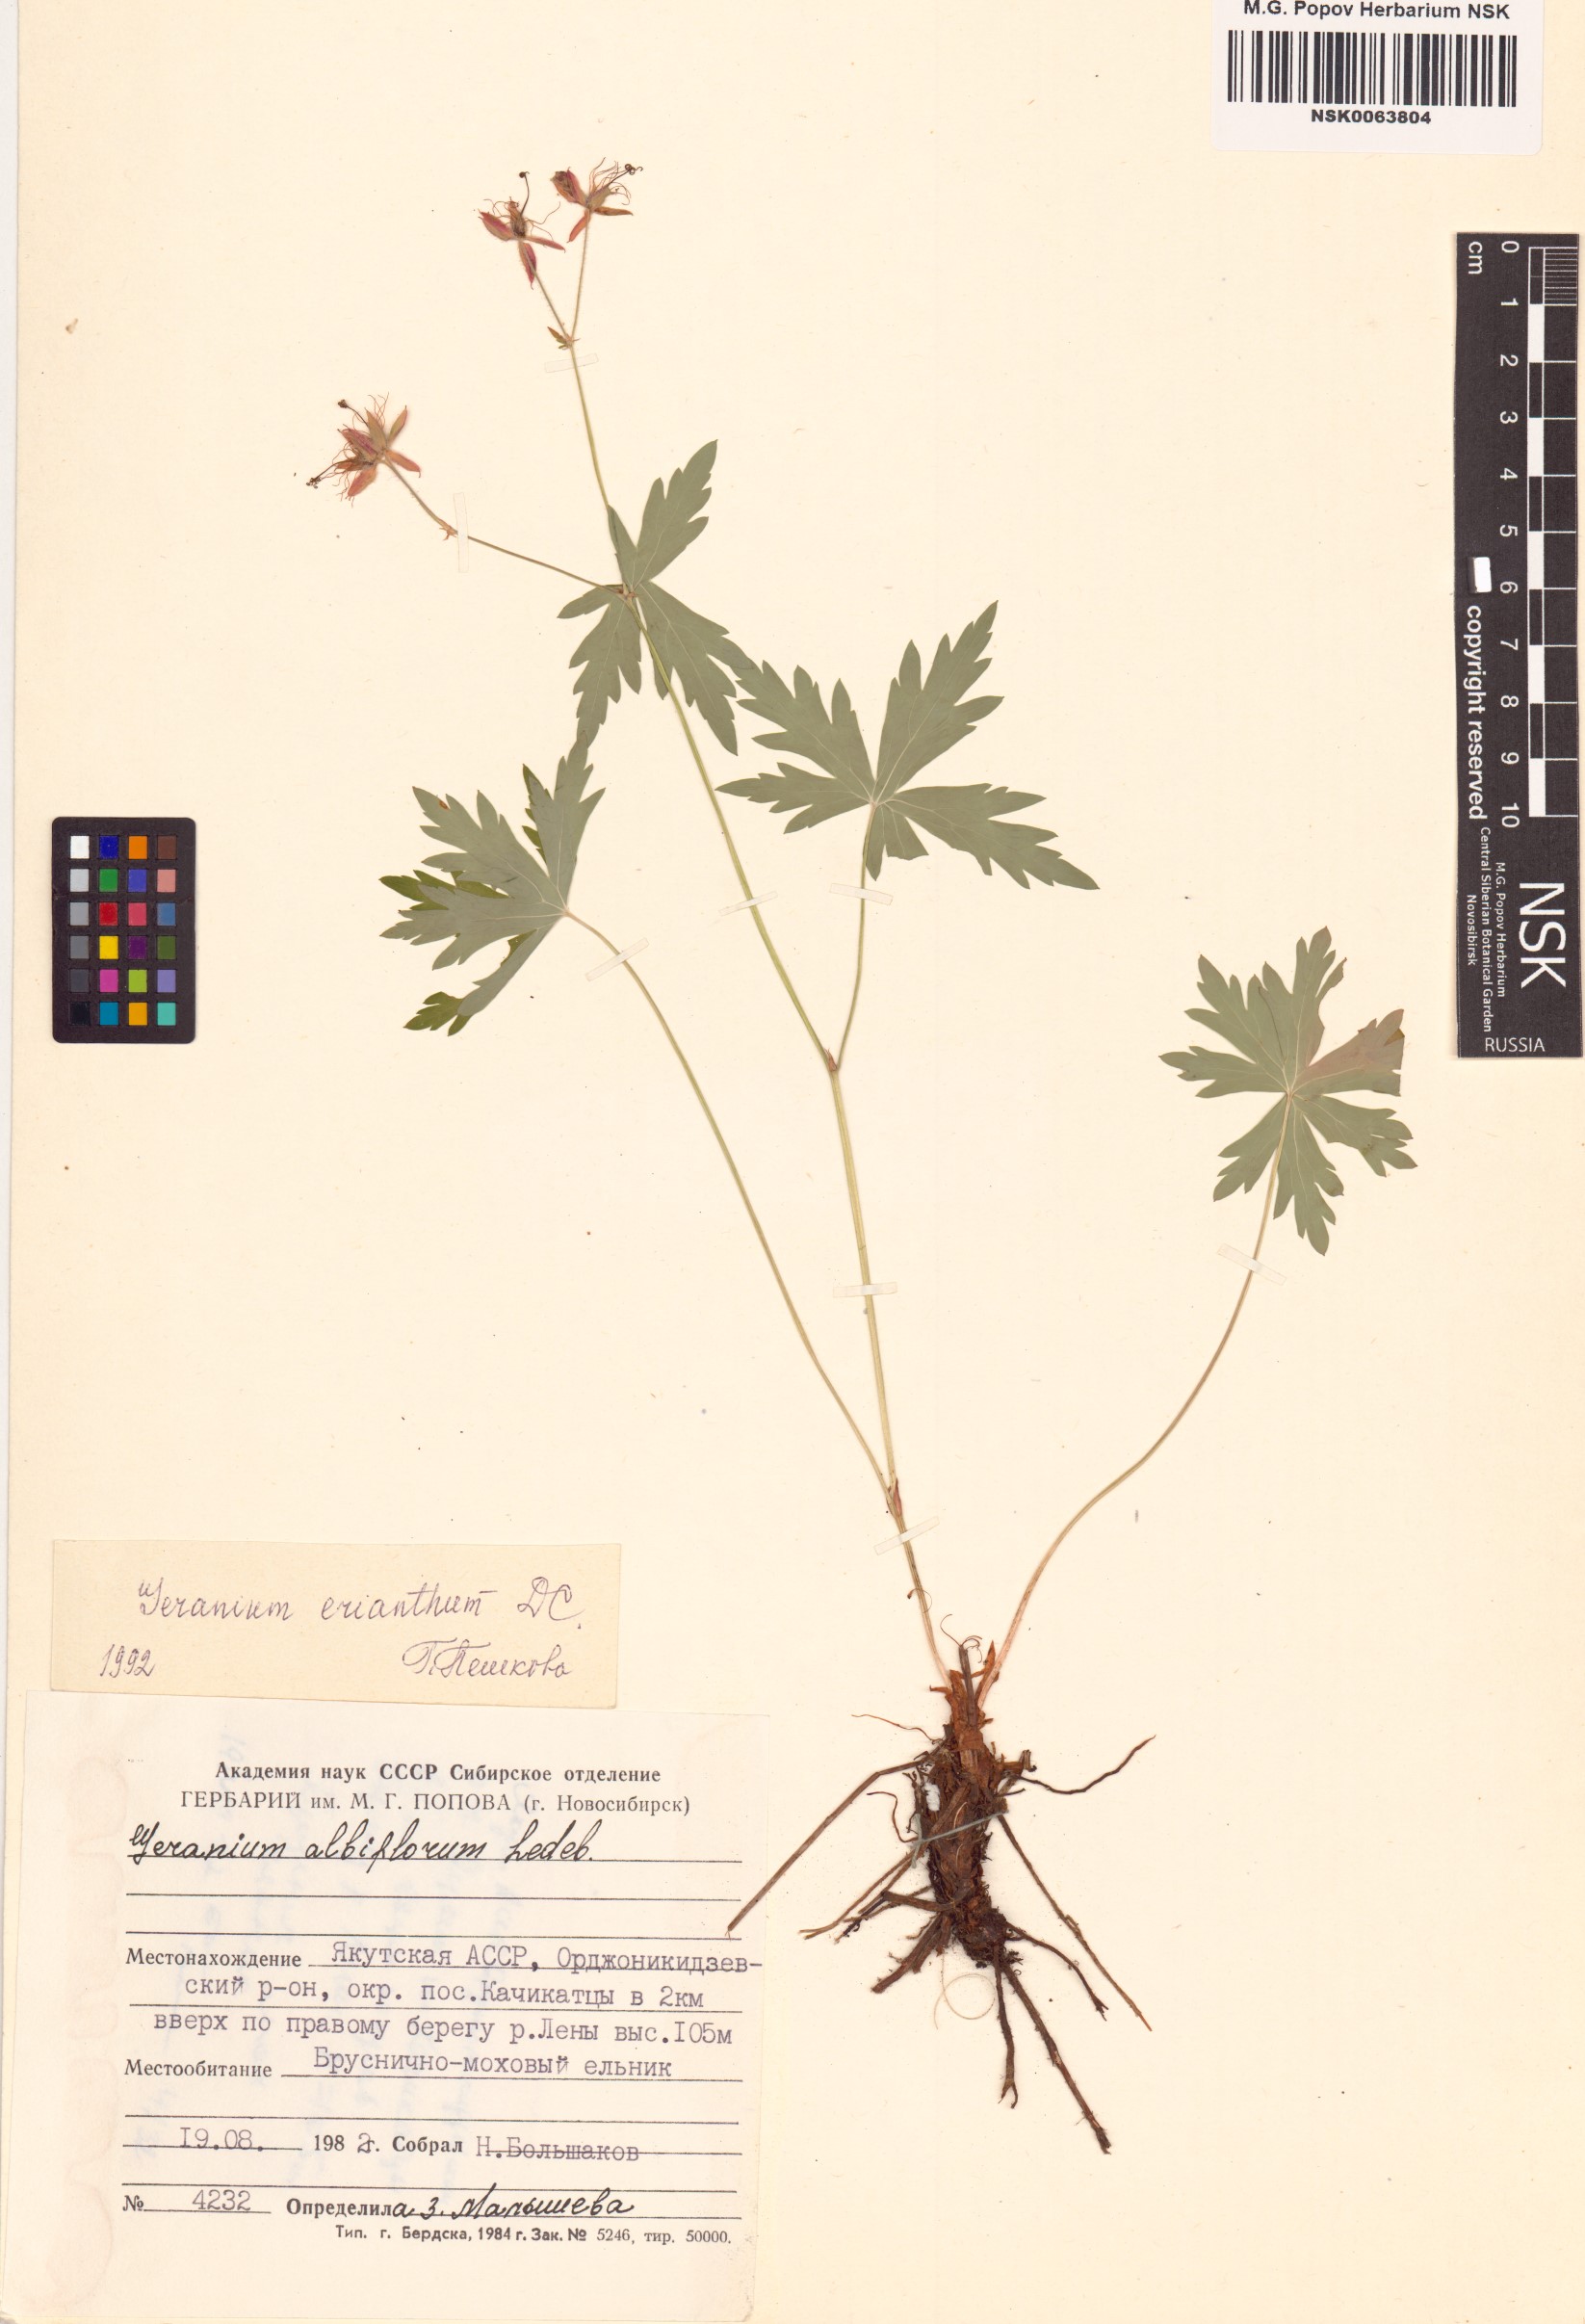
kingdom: Plantae
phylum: Tracheophyta
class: Magnoliopsida
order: Geraniales
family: Geraniaceae
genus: Geranium
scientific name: Geranium erianthum
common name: Northern crane's-bill
